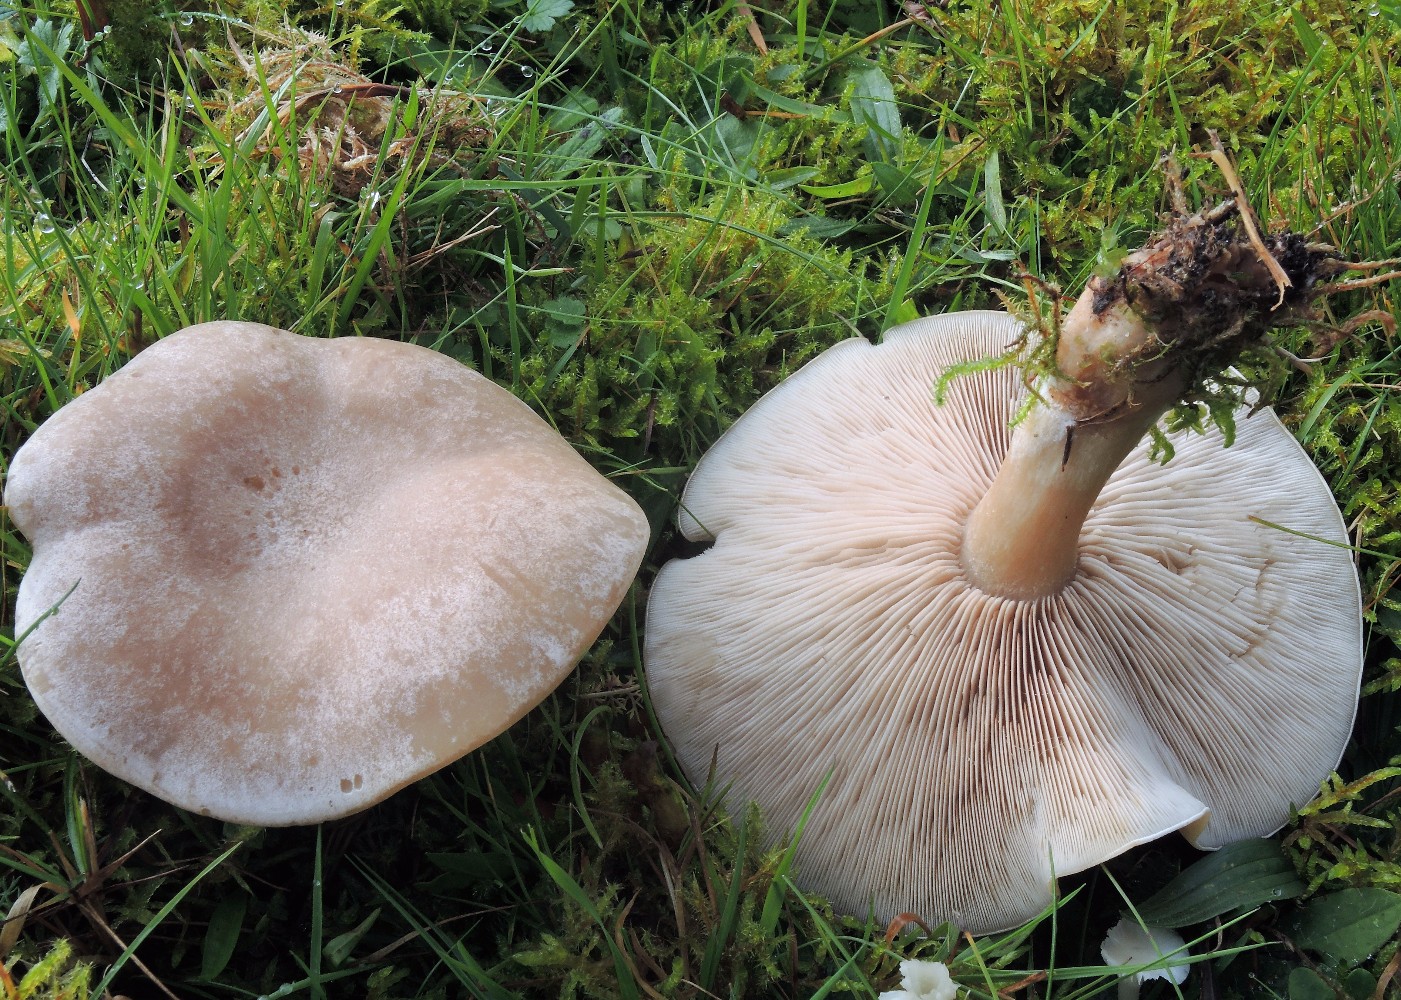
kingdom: Fungi
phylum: Basidiomycota
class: Agaricomycetes
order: Agaricales
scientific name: Agaricales
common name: champignonordenen
